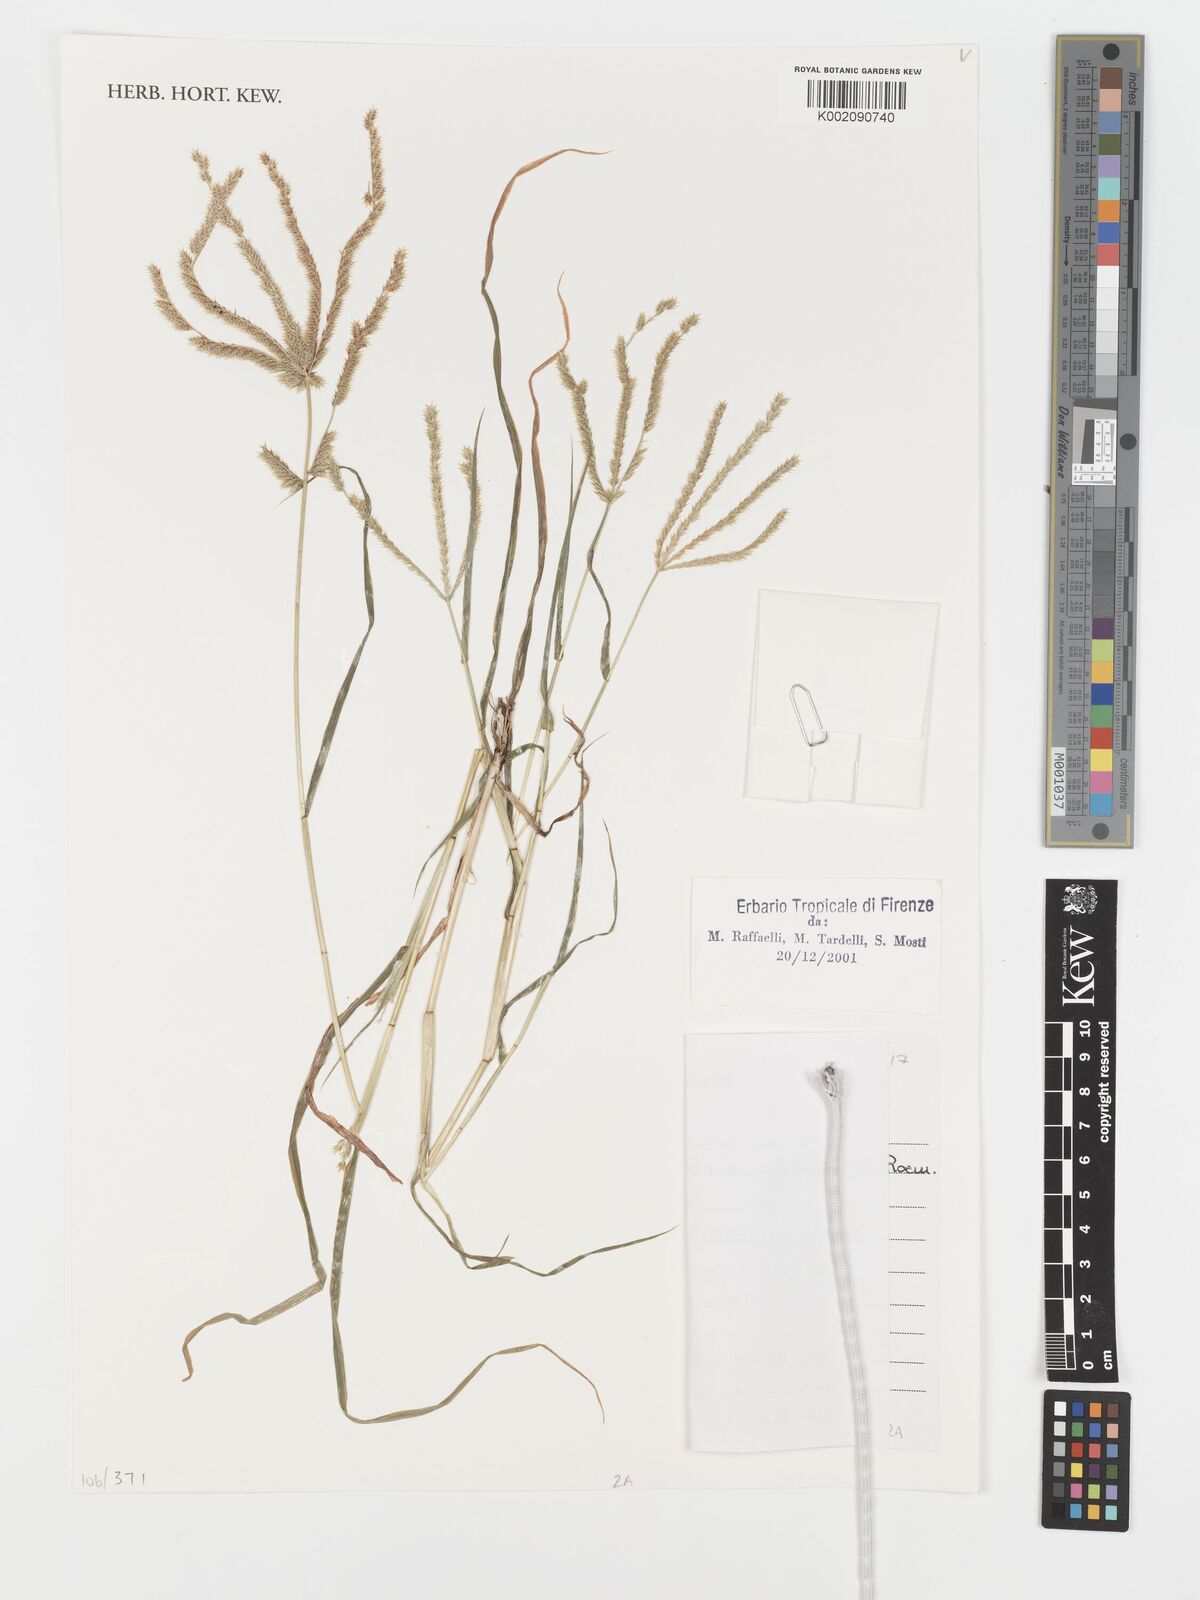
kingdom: Plantae
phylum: Tracheophyta
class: Liliopsida
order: Poales
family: Poaceae
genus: Acrachne
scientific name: Acrachne racemosa
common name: Goosegrass
